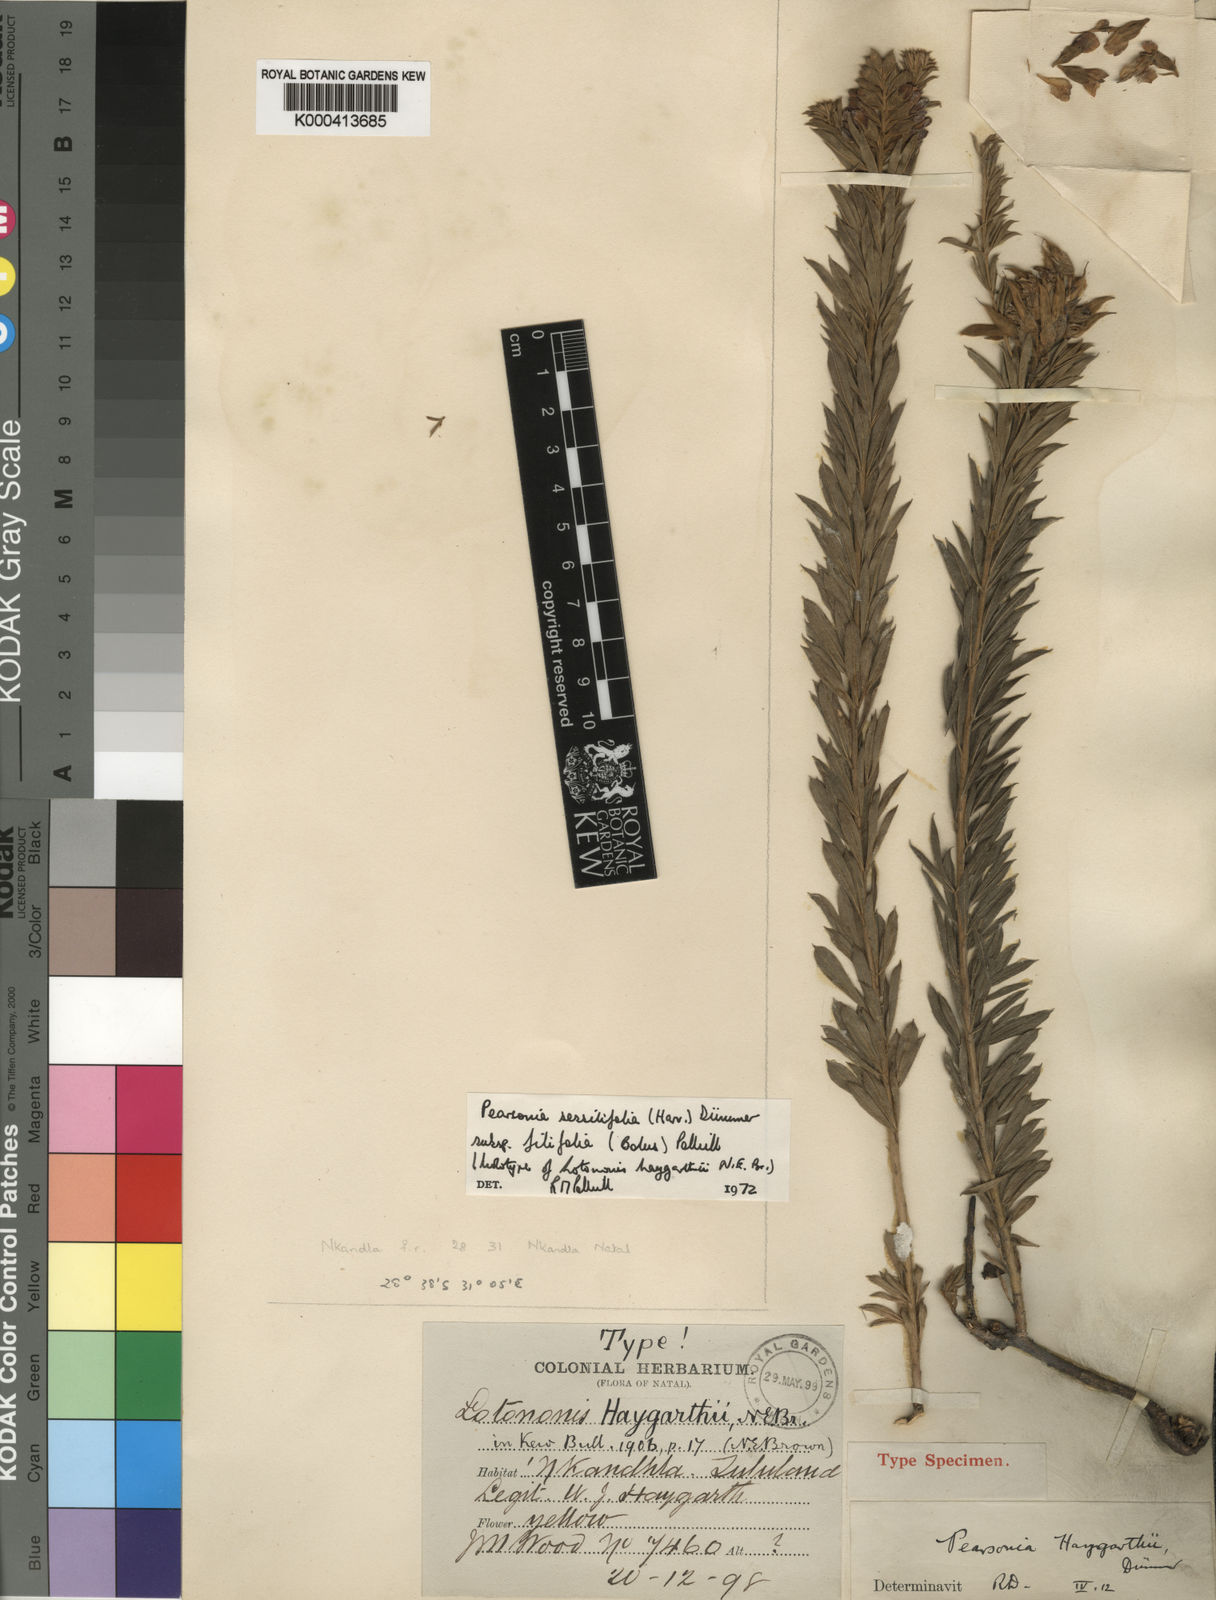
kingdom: Plantae
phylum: Tracheophyta
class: Magnoliopsida
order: Fabales
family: Fabaceae
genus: Pearsonia
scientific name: Pearsonia sessilifolia
